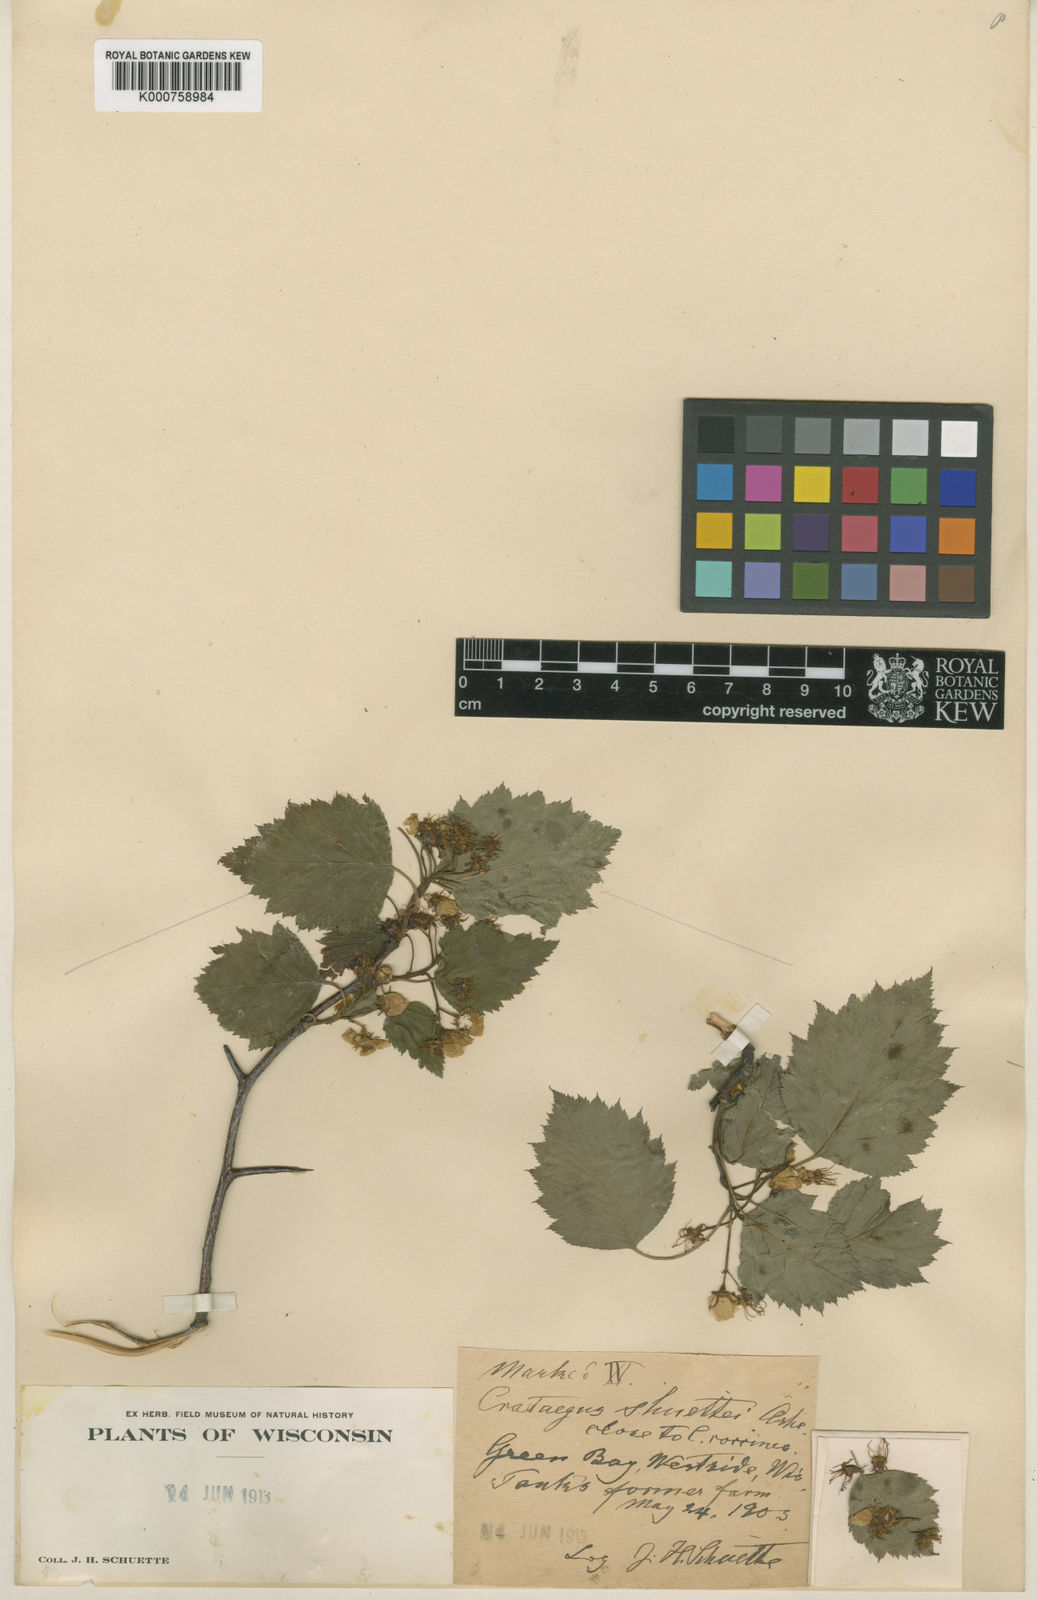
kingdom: Plantae
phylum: Tracheophyta
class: Magnoliopsida
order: Rosales
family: Rosaceae
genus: Crataegus
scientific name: Crataegus schuettei
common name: Schuette's hawthorn
